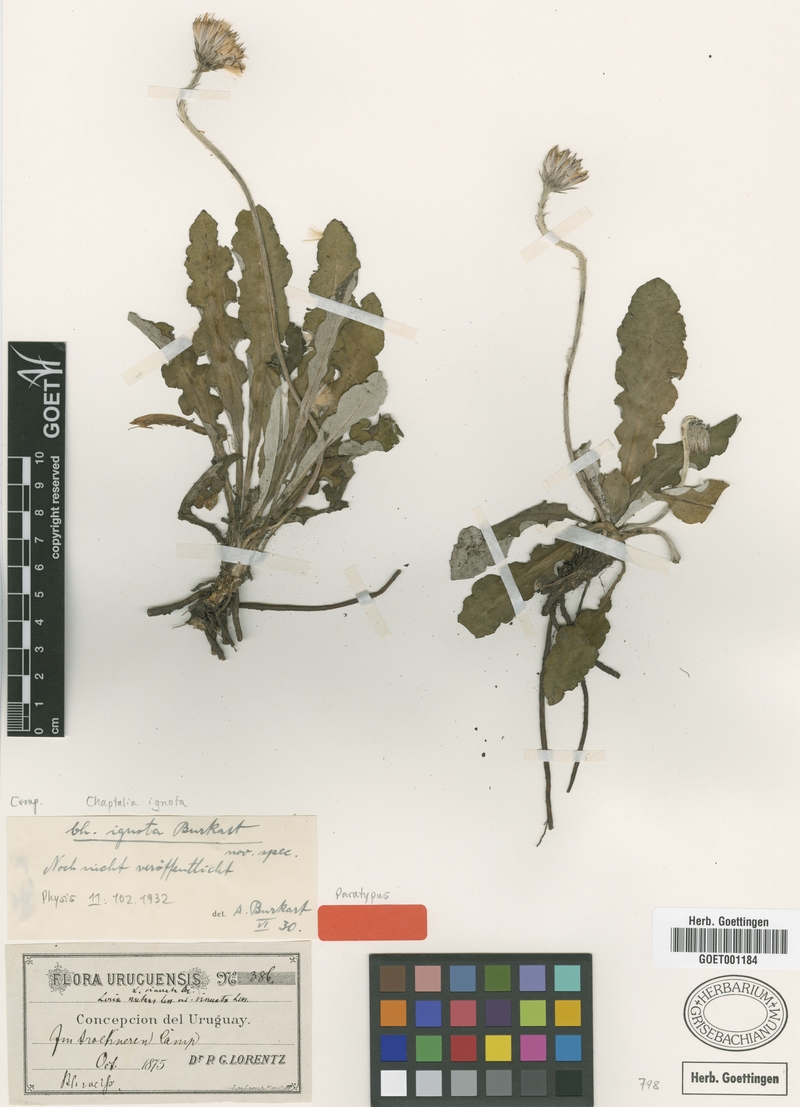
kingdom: Plantae
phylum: Tracheophyta
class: Magnoliopsida
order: Asterales
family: Asteraceae
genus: Chaptalia
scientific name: Chaptalia ignota
